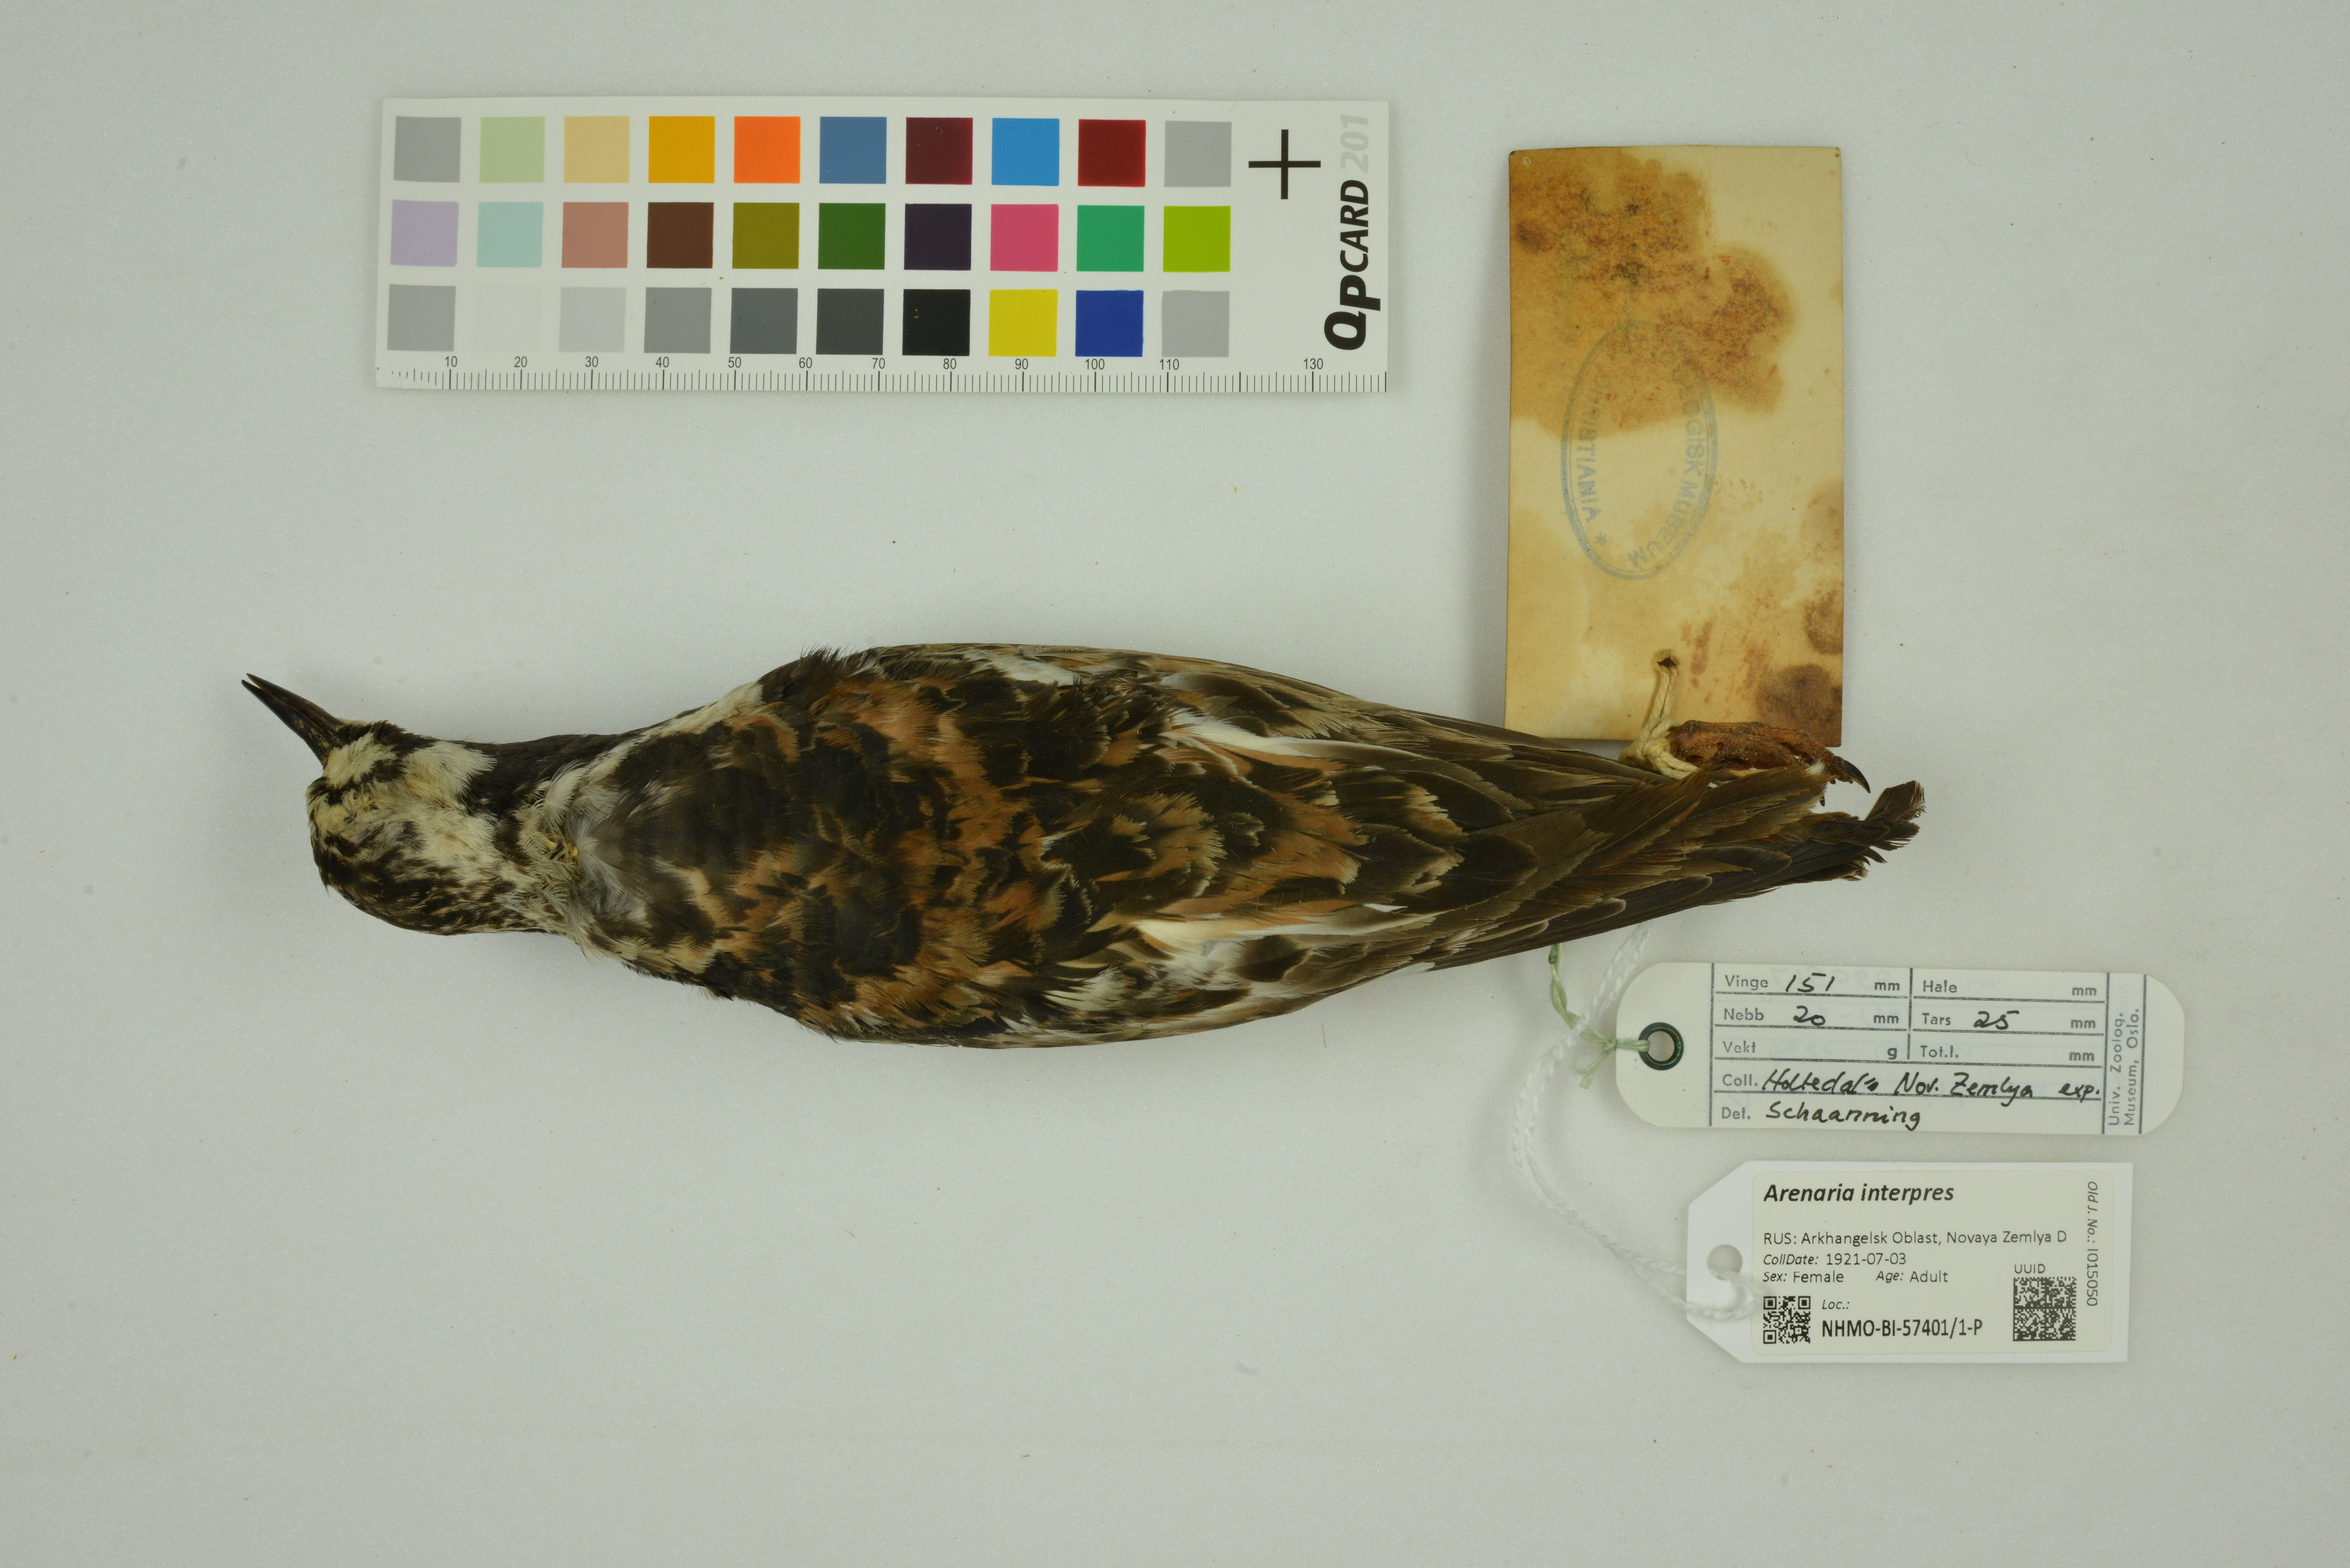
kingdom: Animalia
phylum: Chordata
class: Aves
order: Charadriiformes
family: Scolopacidae
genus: Arenaria
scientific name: Arenaria interpres
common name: Ruddy turnstone
